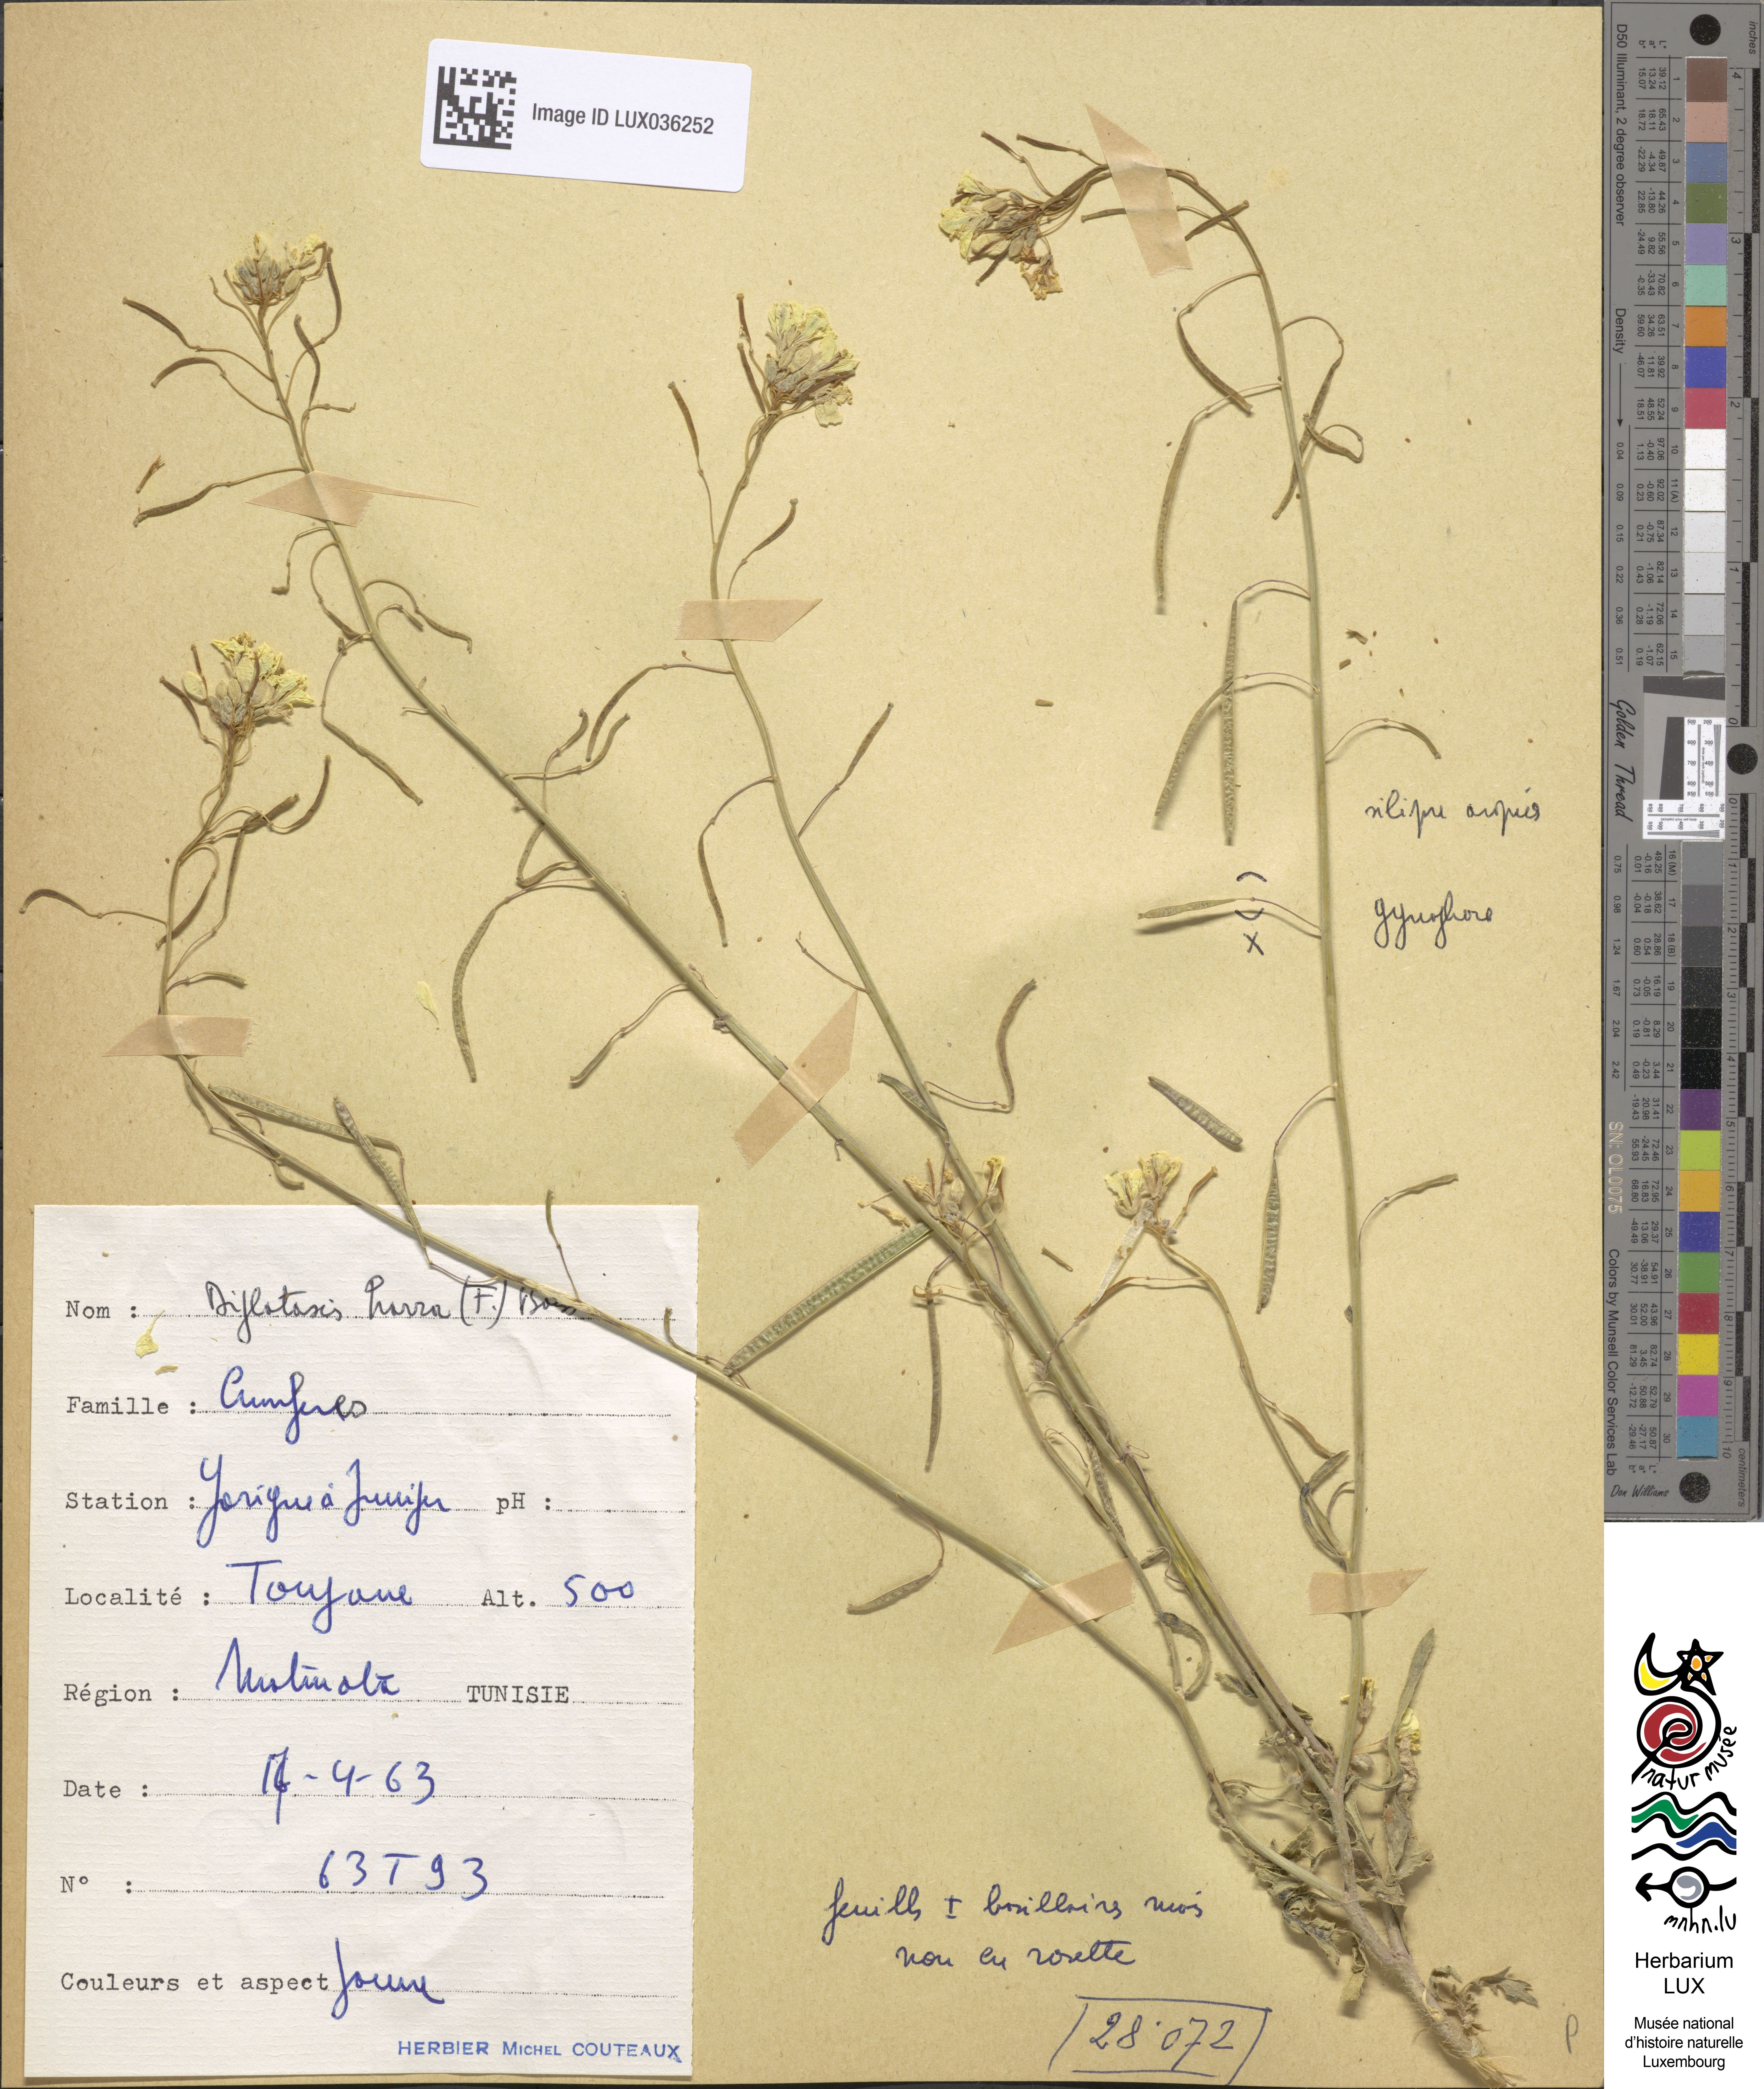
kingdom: Plantae
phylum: Tracheophyta
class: Magnoliopsida
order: Brassicales
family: Brassicaceae
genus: Diplotaxis
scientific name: Diplotaxis harra
